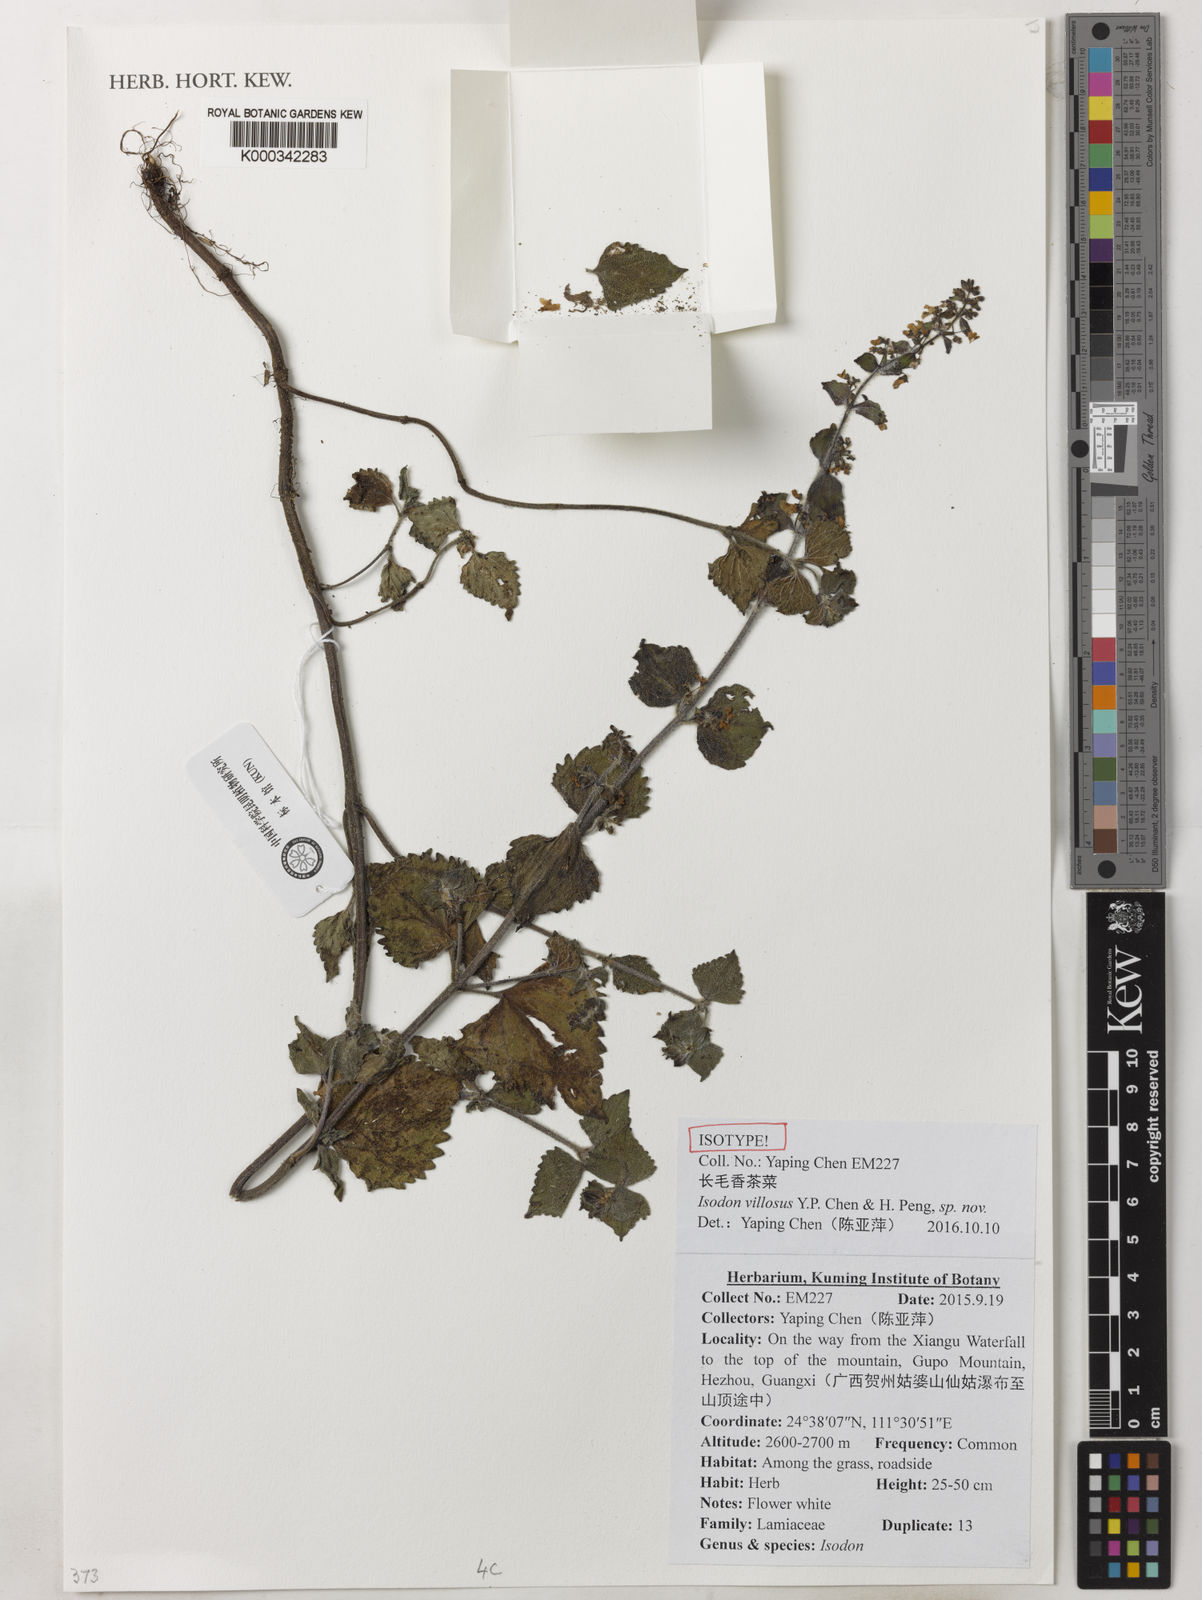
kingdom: Plantae
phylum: Tracheophyta
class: Magnoliopsida
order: Lamiales
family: Lamiaceae
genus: Isodon
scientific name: Isodon villosus
